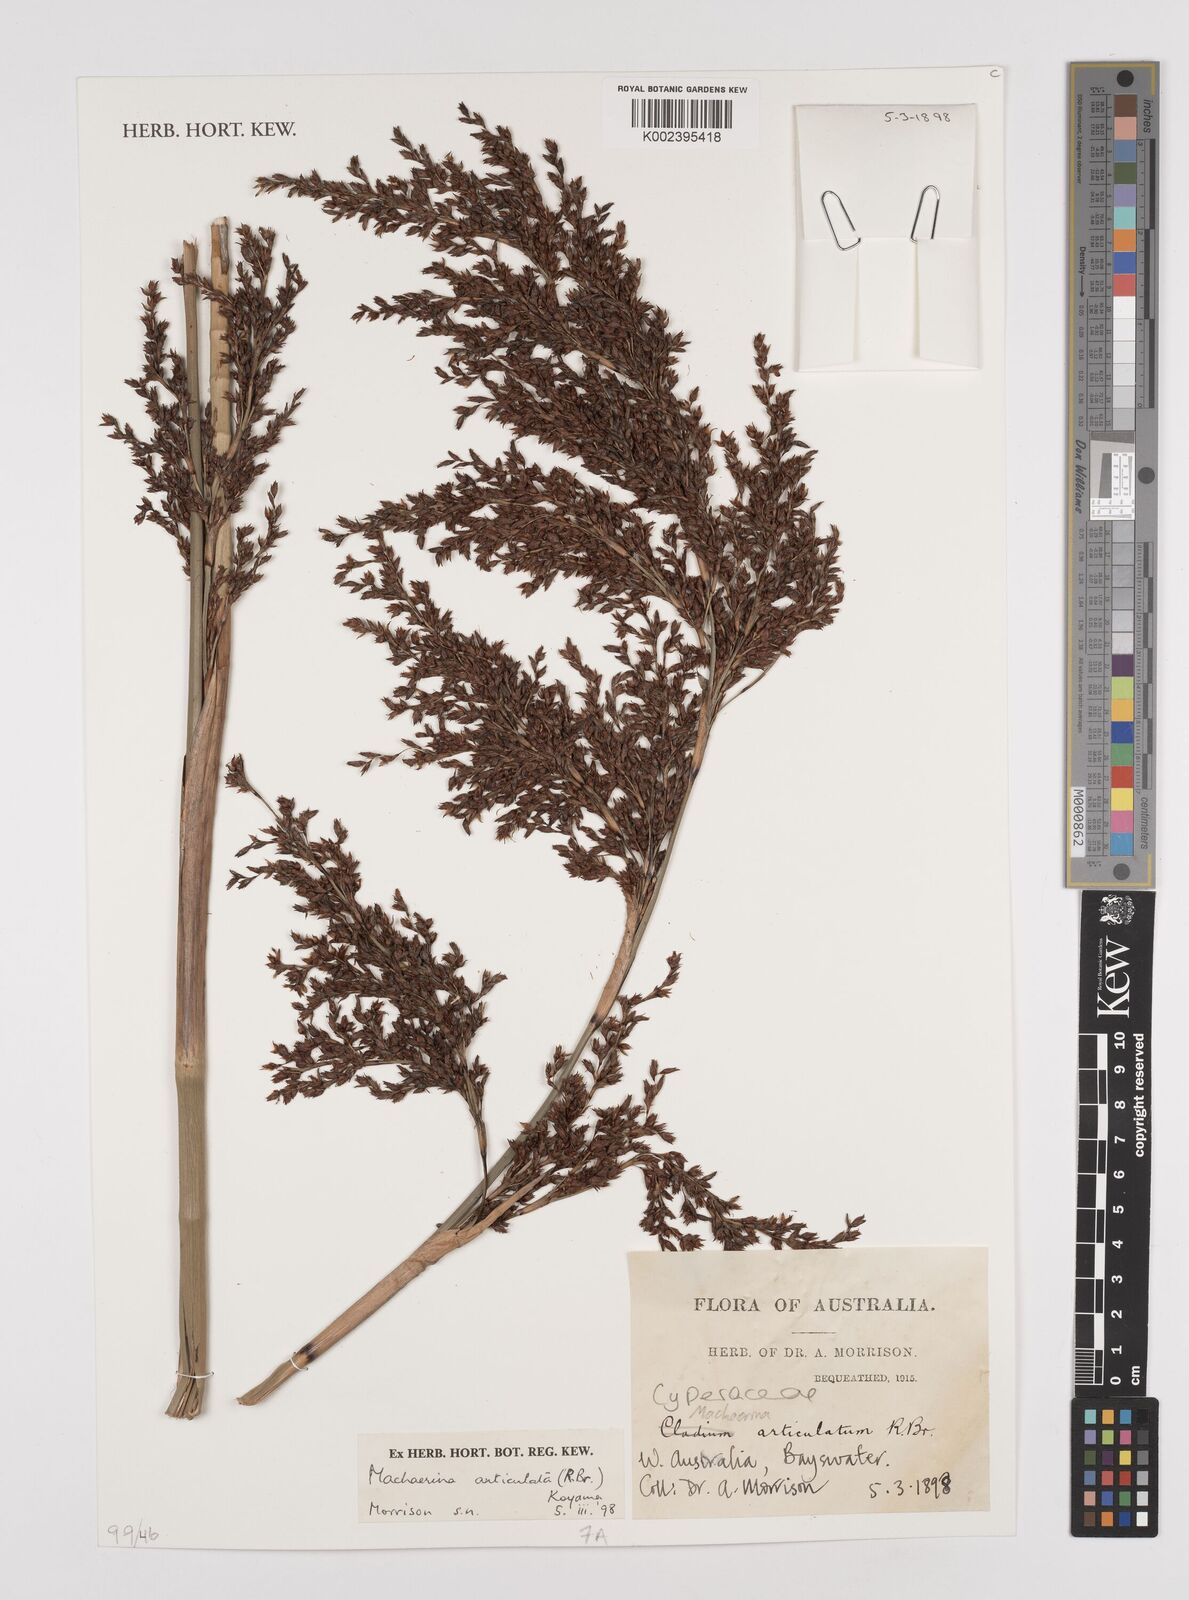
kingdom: Plantae
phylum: Tracheophyta
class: Liliopsida
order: Poales
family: Cyperaceae
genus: Machaerina
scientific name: Machaerina articulata
